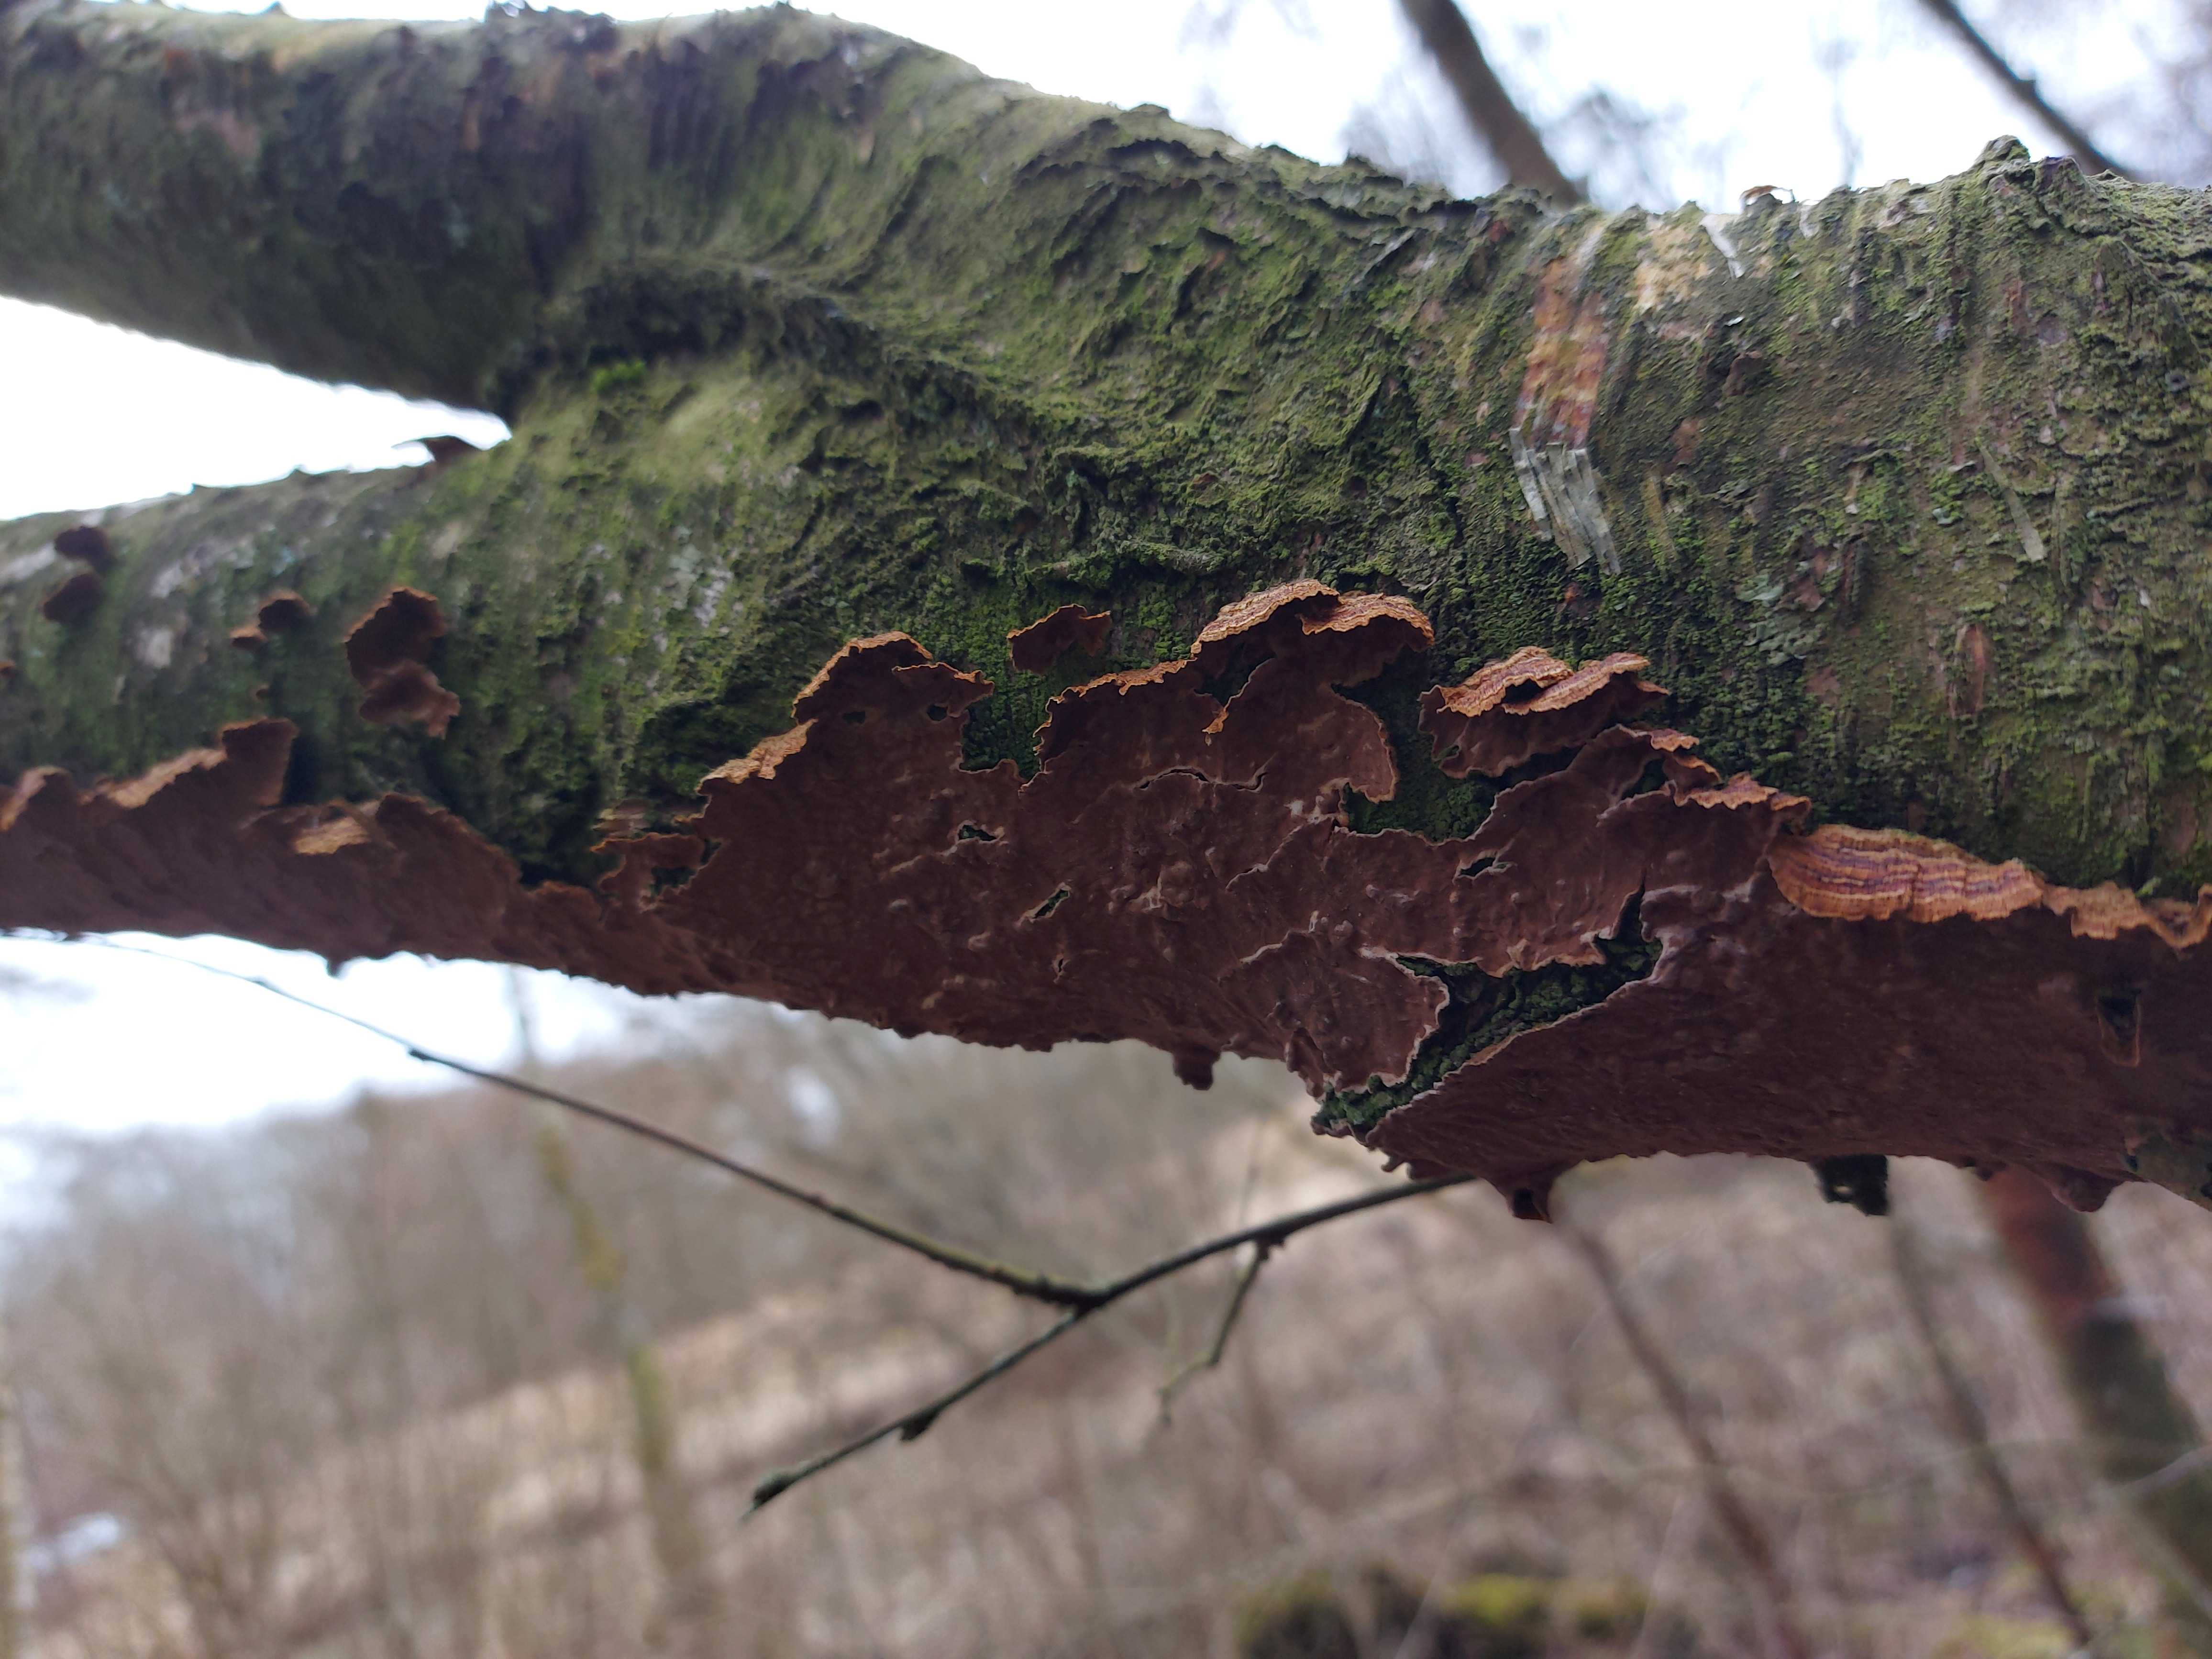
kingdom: Fungi
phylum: Basidiomycota
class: Agaricomycetes
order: Hymenochaetales
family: Hymenochaetaceae
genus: Hydnoporia
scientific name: Hydnoporia tabacina
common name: tobaksbrun ruslædersvamp
